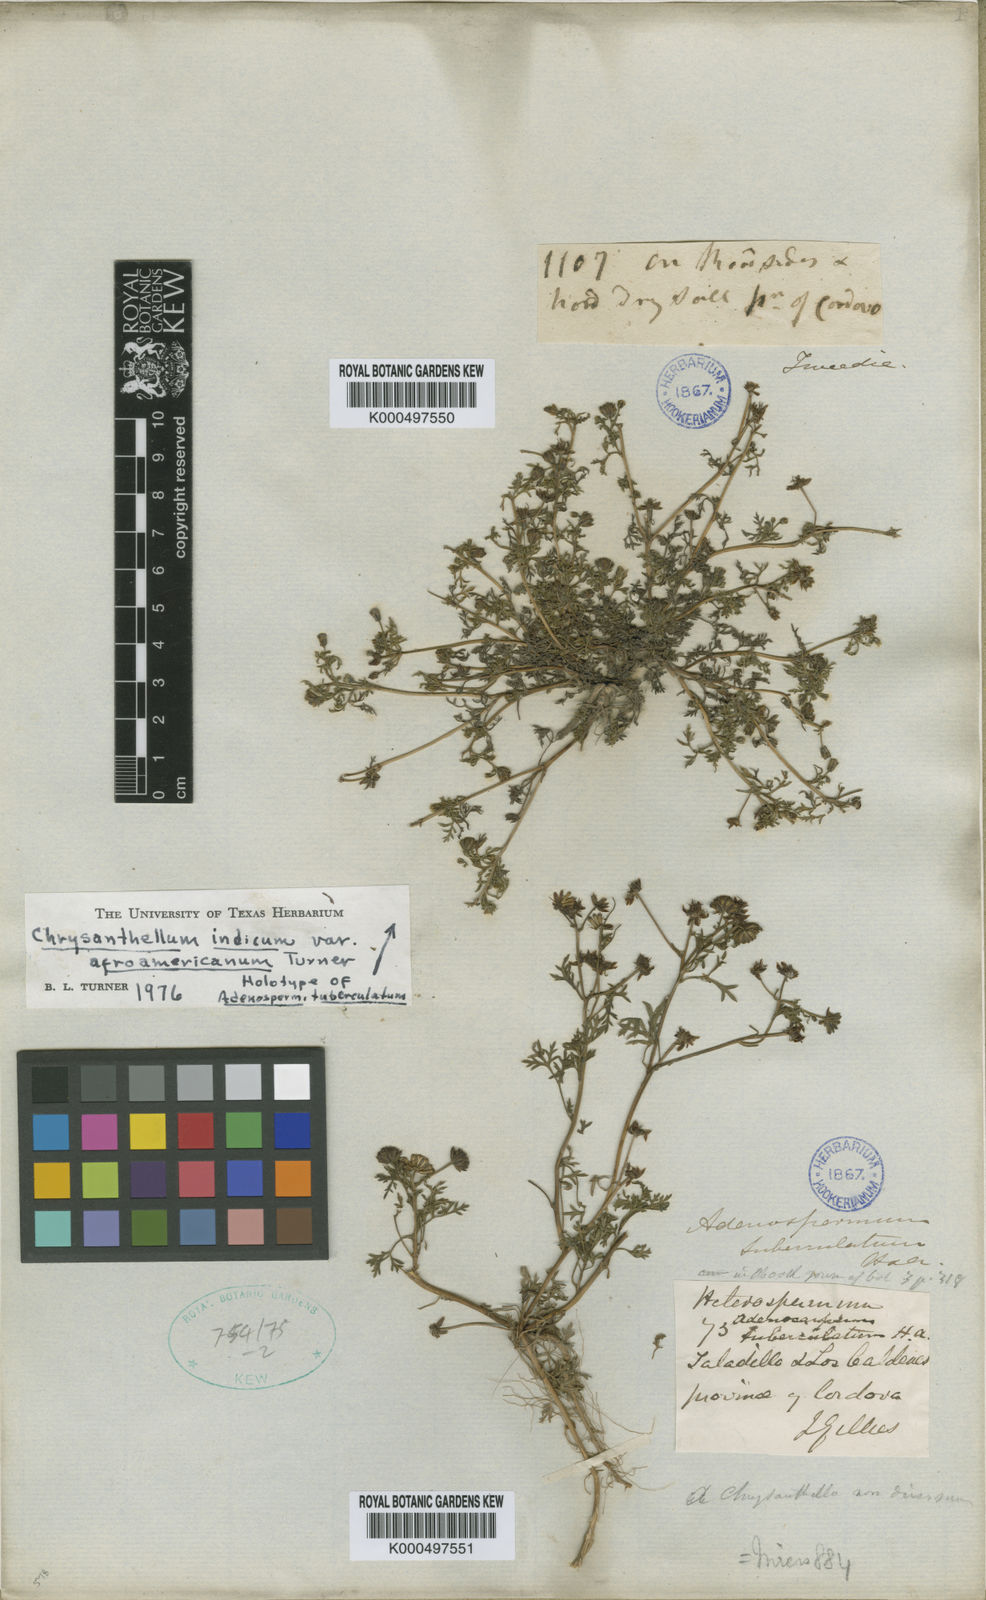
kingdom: Plantae
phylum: Tracheophyta
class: Magnoliopsida
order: Asterales
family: Asteraceae
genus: Chrysanthellum
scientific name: Chrysanthellum indicum
